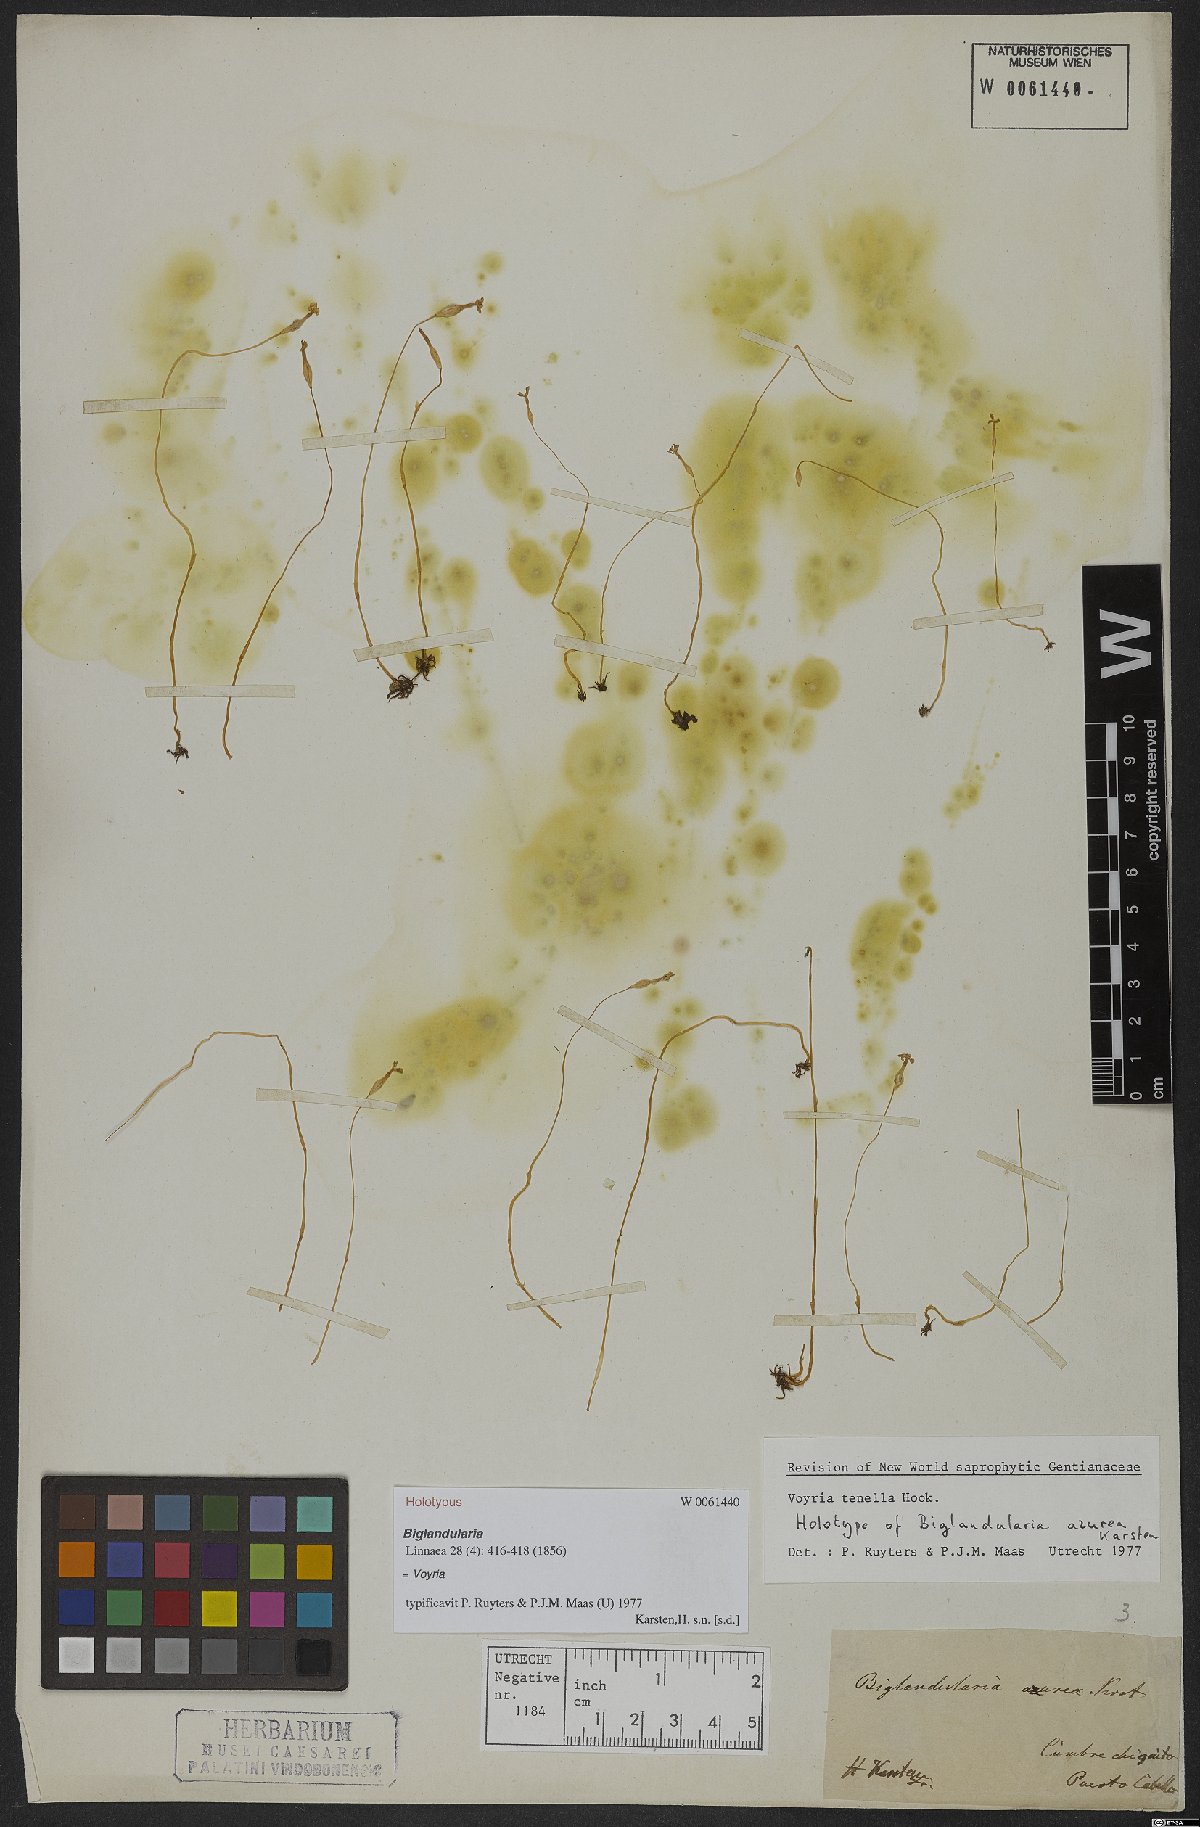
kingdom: Plantae
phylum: Tracheophyta
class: Magnoliopsida
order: Gentianales
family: Gentianaceae
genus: Voyria
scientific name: Voyria tenella
